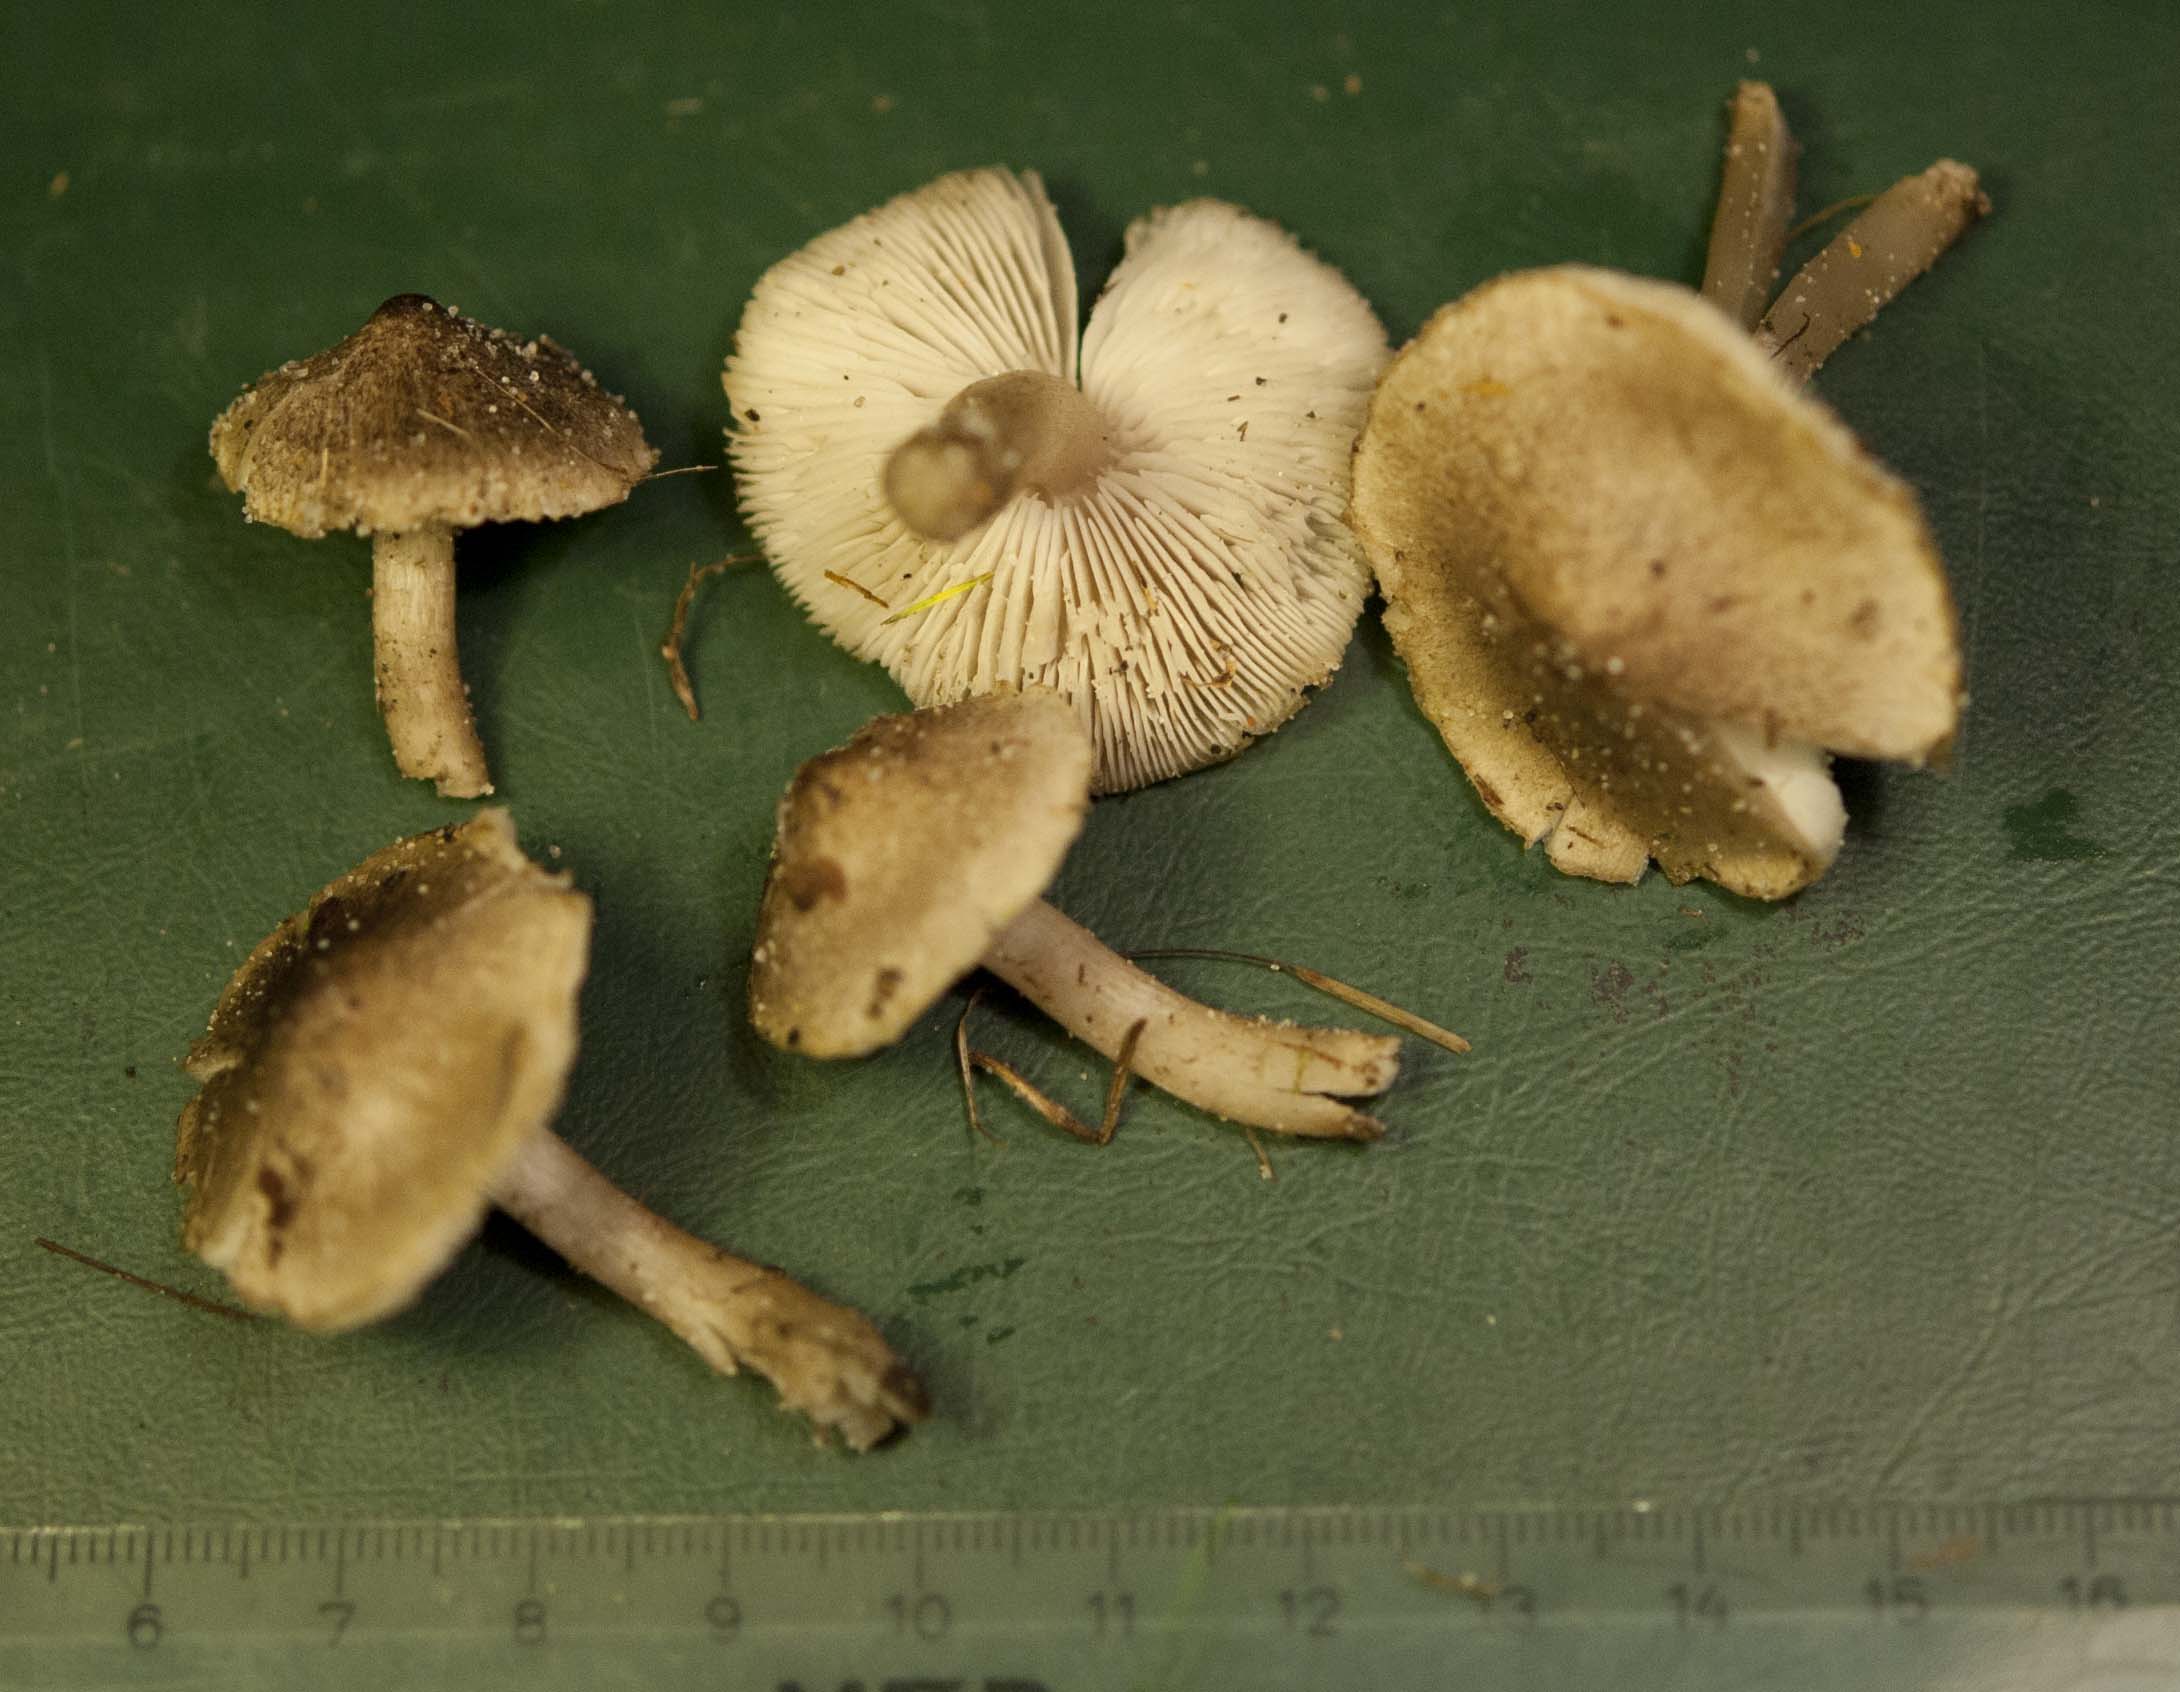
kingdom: Fungi
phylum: Basidiomycota
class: Agaricomycetes
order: Agaricales
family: Tricholomataceae
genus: Tricholoma
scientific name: Tricholoma argyraceum
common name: spids ridderhat
